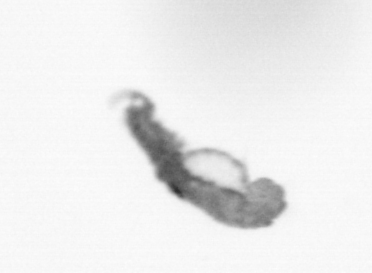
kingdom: Animalia
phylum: Annelida
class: Polychaeta
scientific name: Polychaeta
